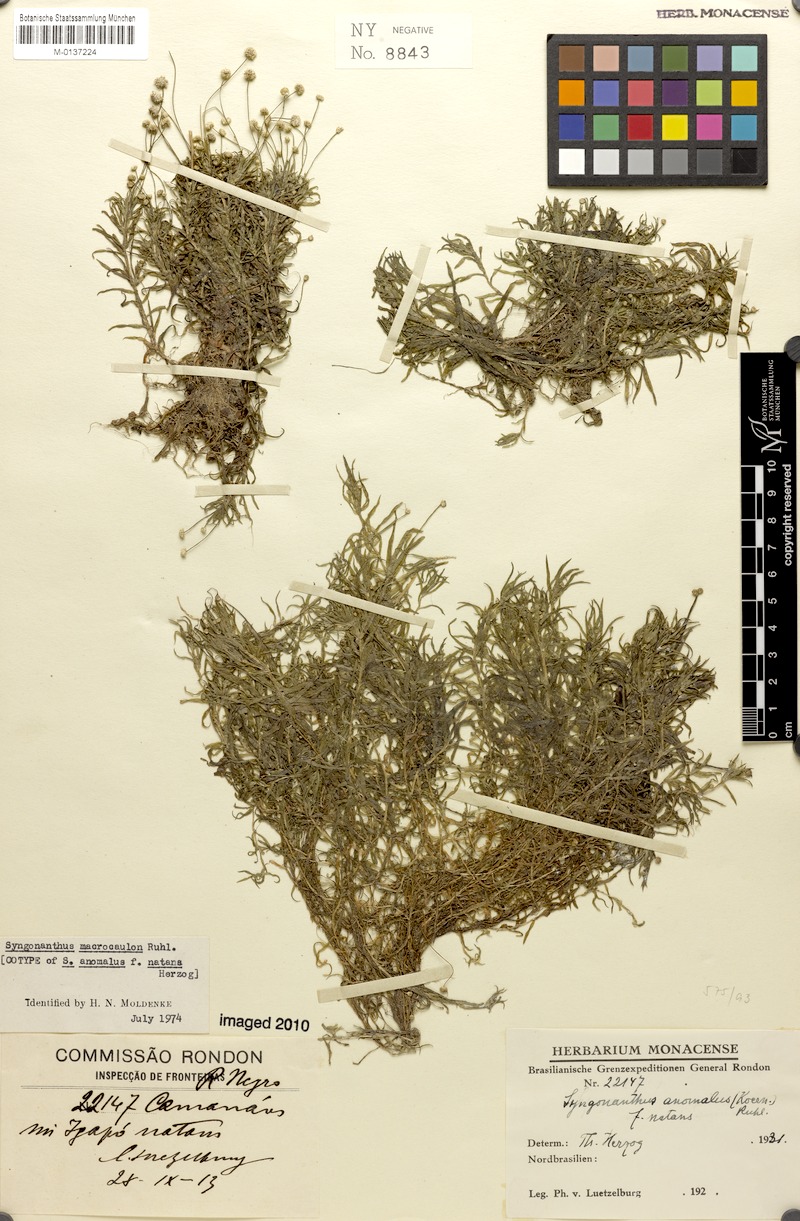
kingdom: Plantae
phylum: Tracheophyta
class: Liliopsida
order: Poales
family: Eriocaulaceae
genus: Syngonanthus
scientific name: Syngonanthus anomalus
